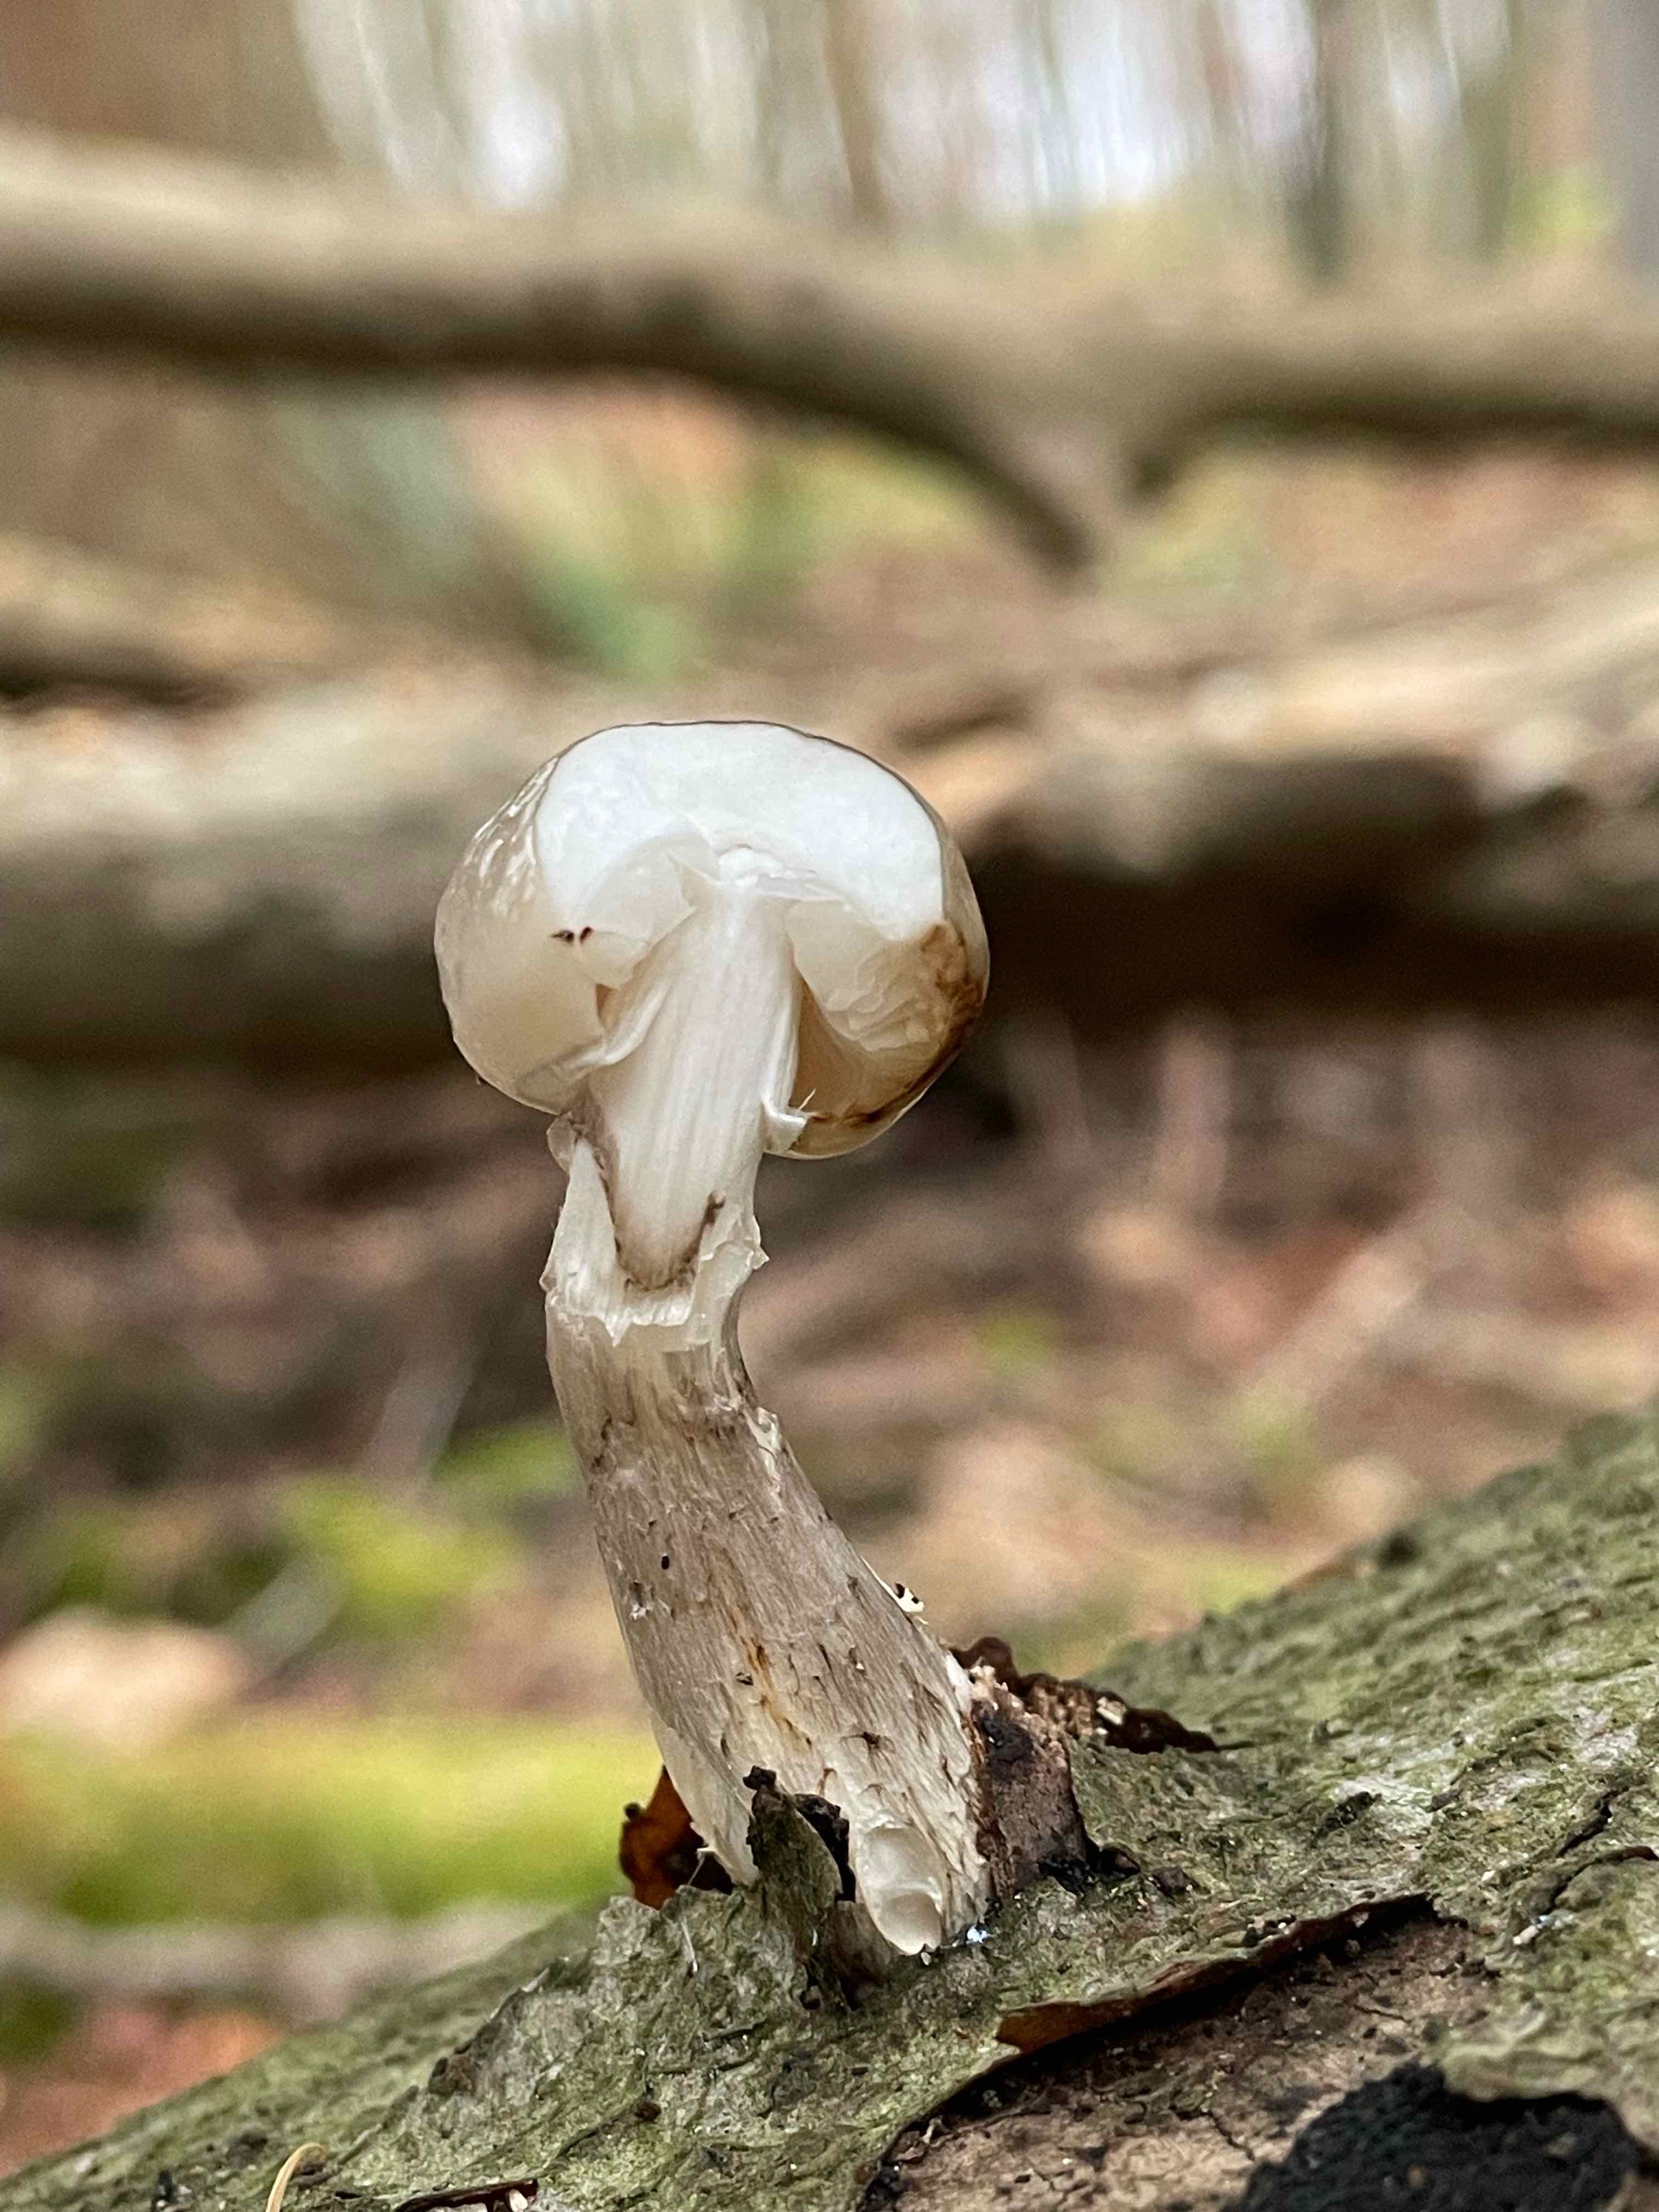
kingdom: Fungi
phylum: Basidiomycota
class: Agaricomycetes
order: Agaricales
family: Physalacriaceae
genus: Mucidula
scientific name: Mucidula mucida
